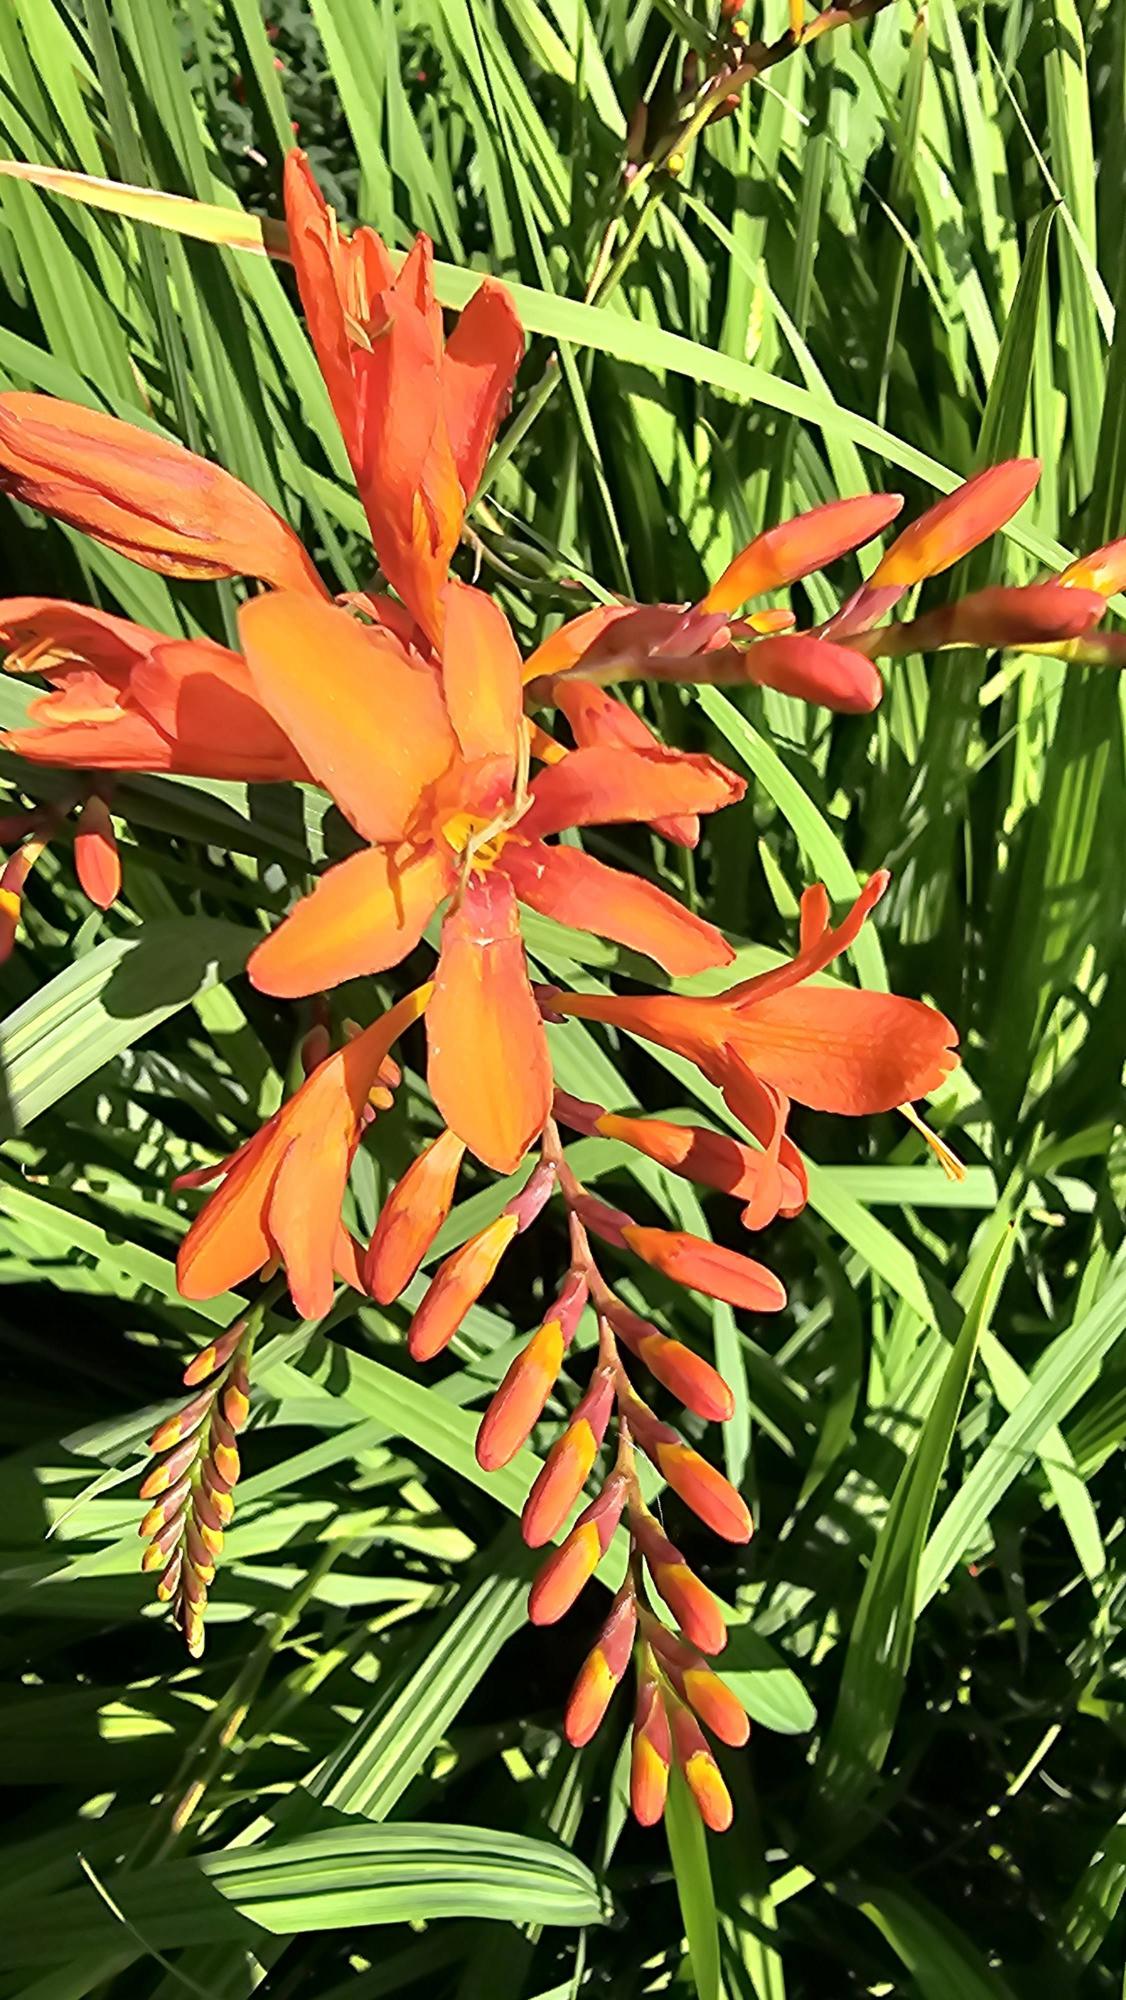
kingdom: Plantae
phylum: Tracheophyta
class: Liliopsida
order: Asparagales
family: Iridaceae
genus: Crocosmia
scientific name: Crocosmia crocosmiiflora
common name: Montbretie
